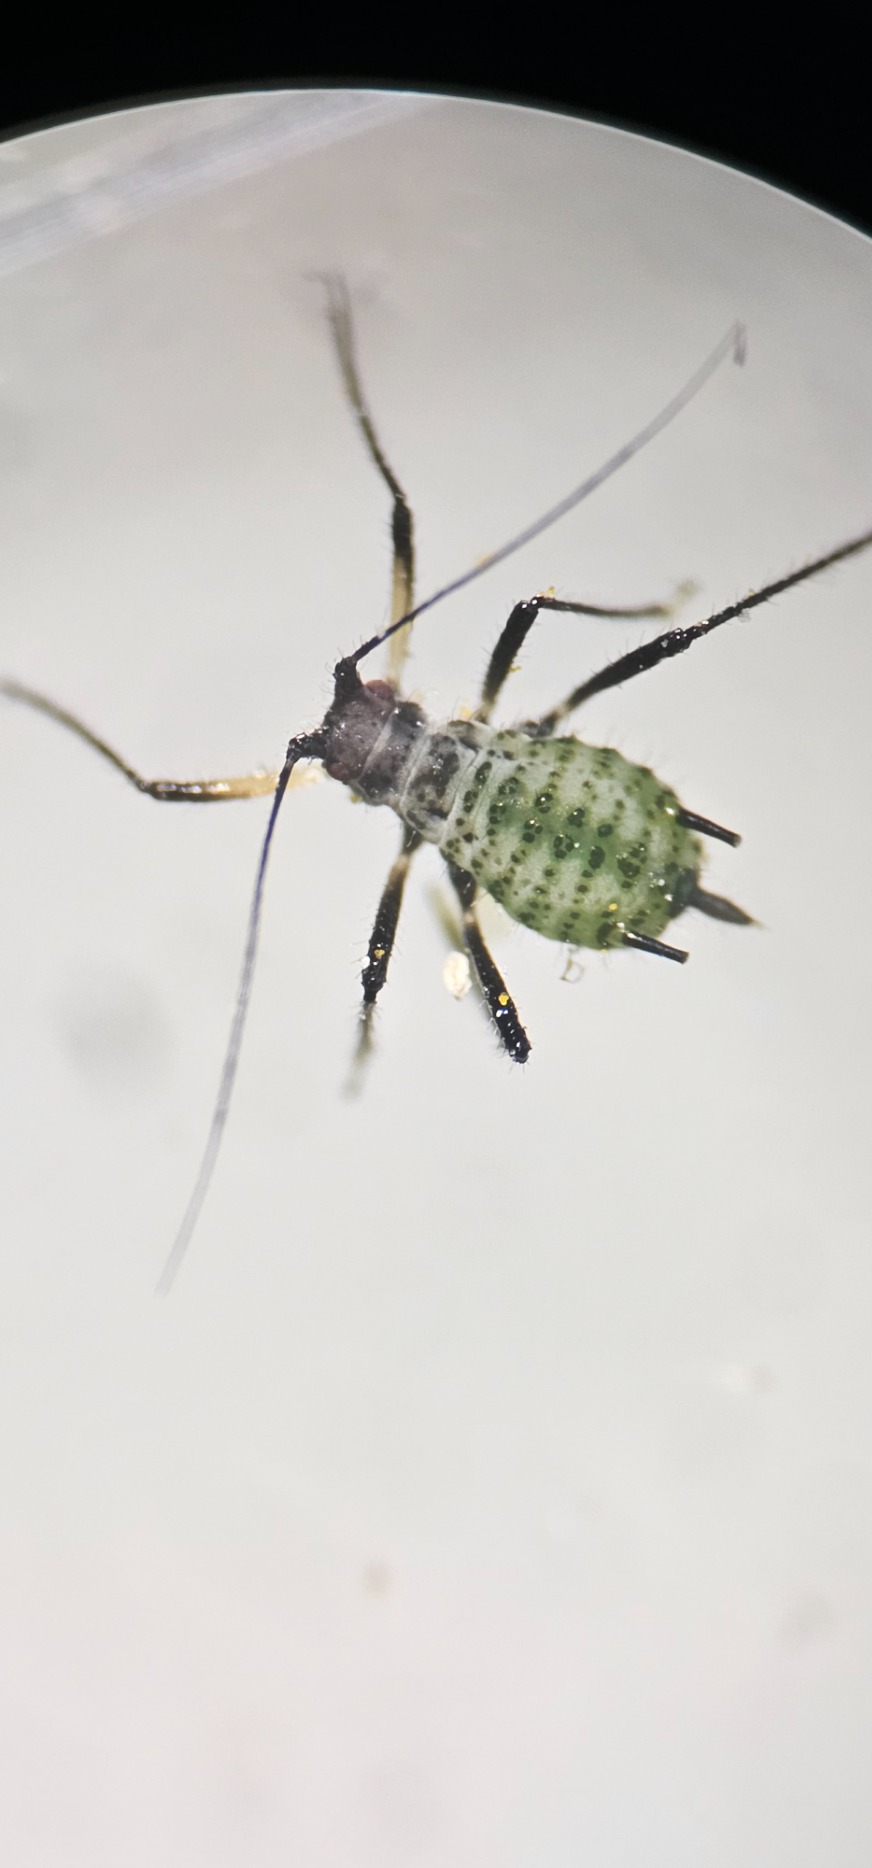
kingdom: Animalia
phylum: Arthropoda
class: Insecta
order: Hemiptera
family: Aphididae
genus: Macrosiphoniella
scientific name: Macrosiphoniella millefolii
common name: Røllikebladlus
